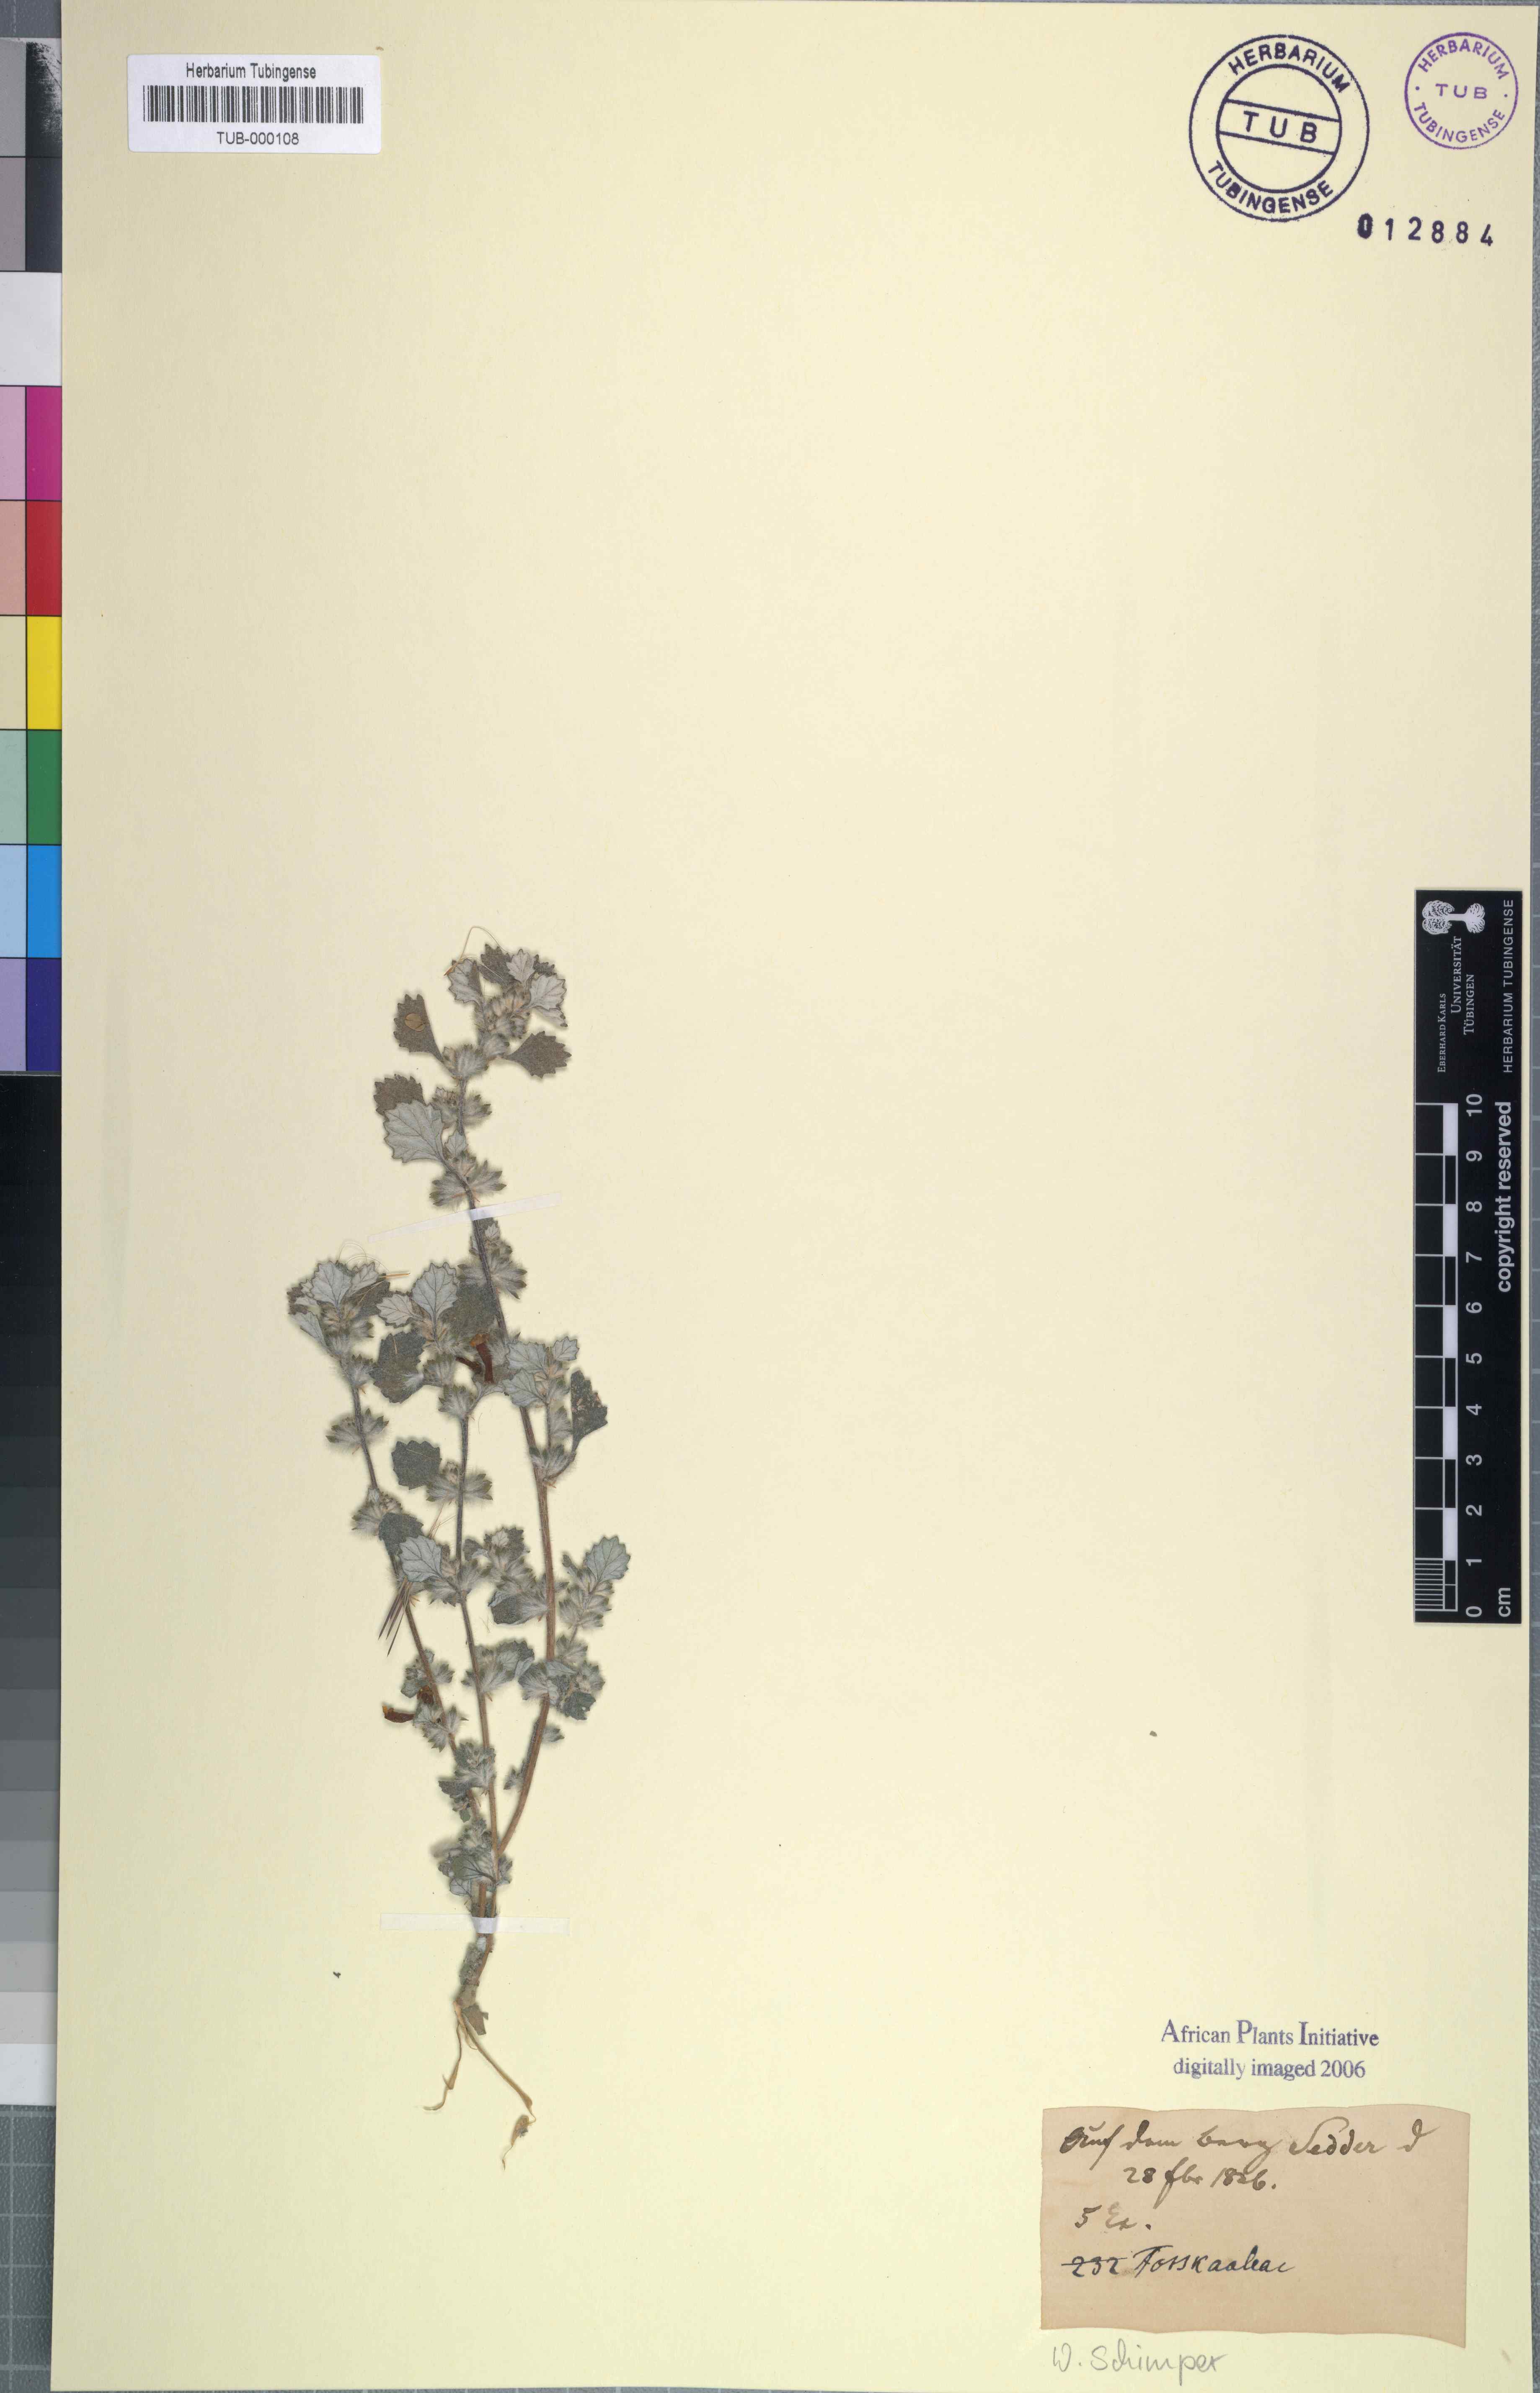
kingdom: Plantae
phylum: Tracheophyta
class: Magnoliopsida
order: Rosales
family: Urticaceae
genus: Forsskaolea
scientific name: Forsskaolea
